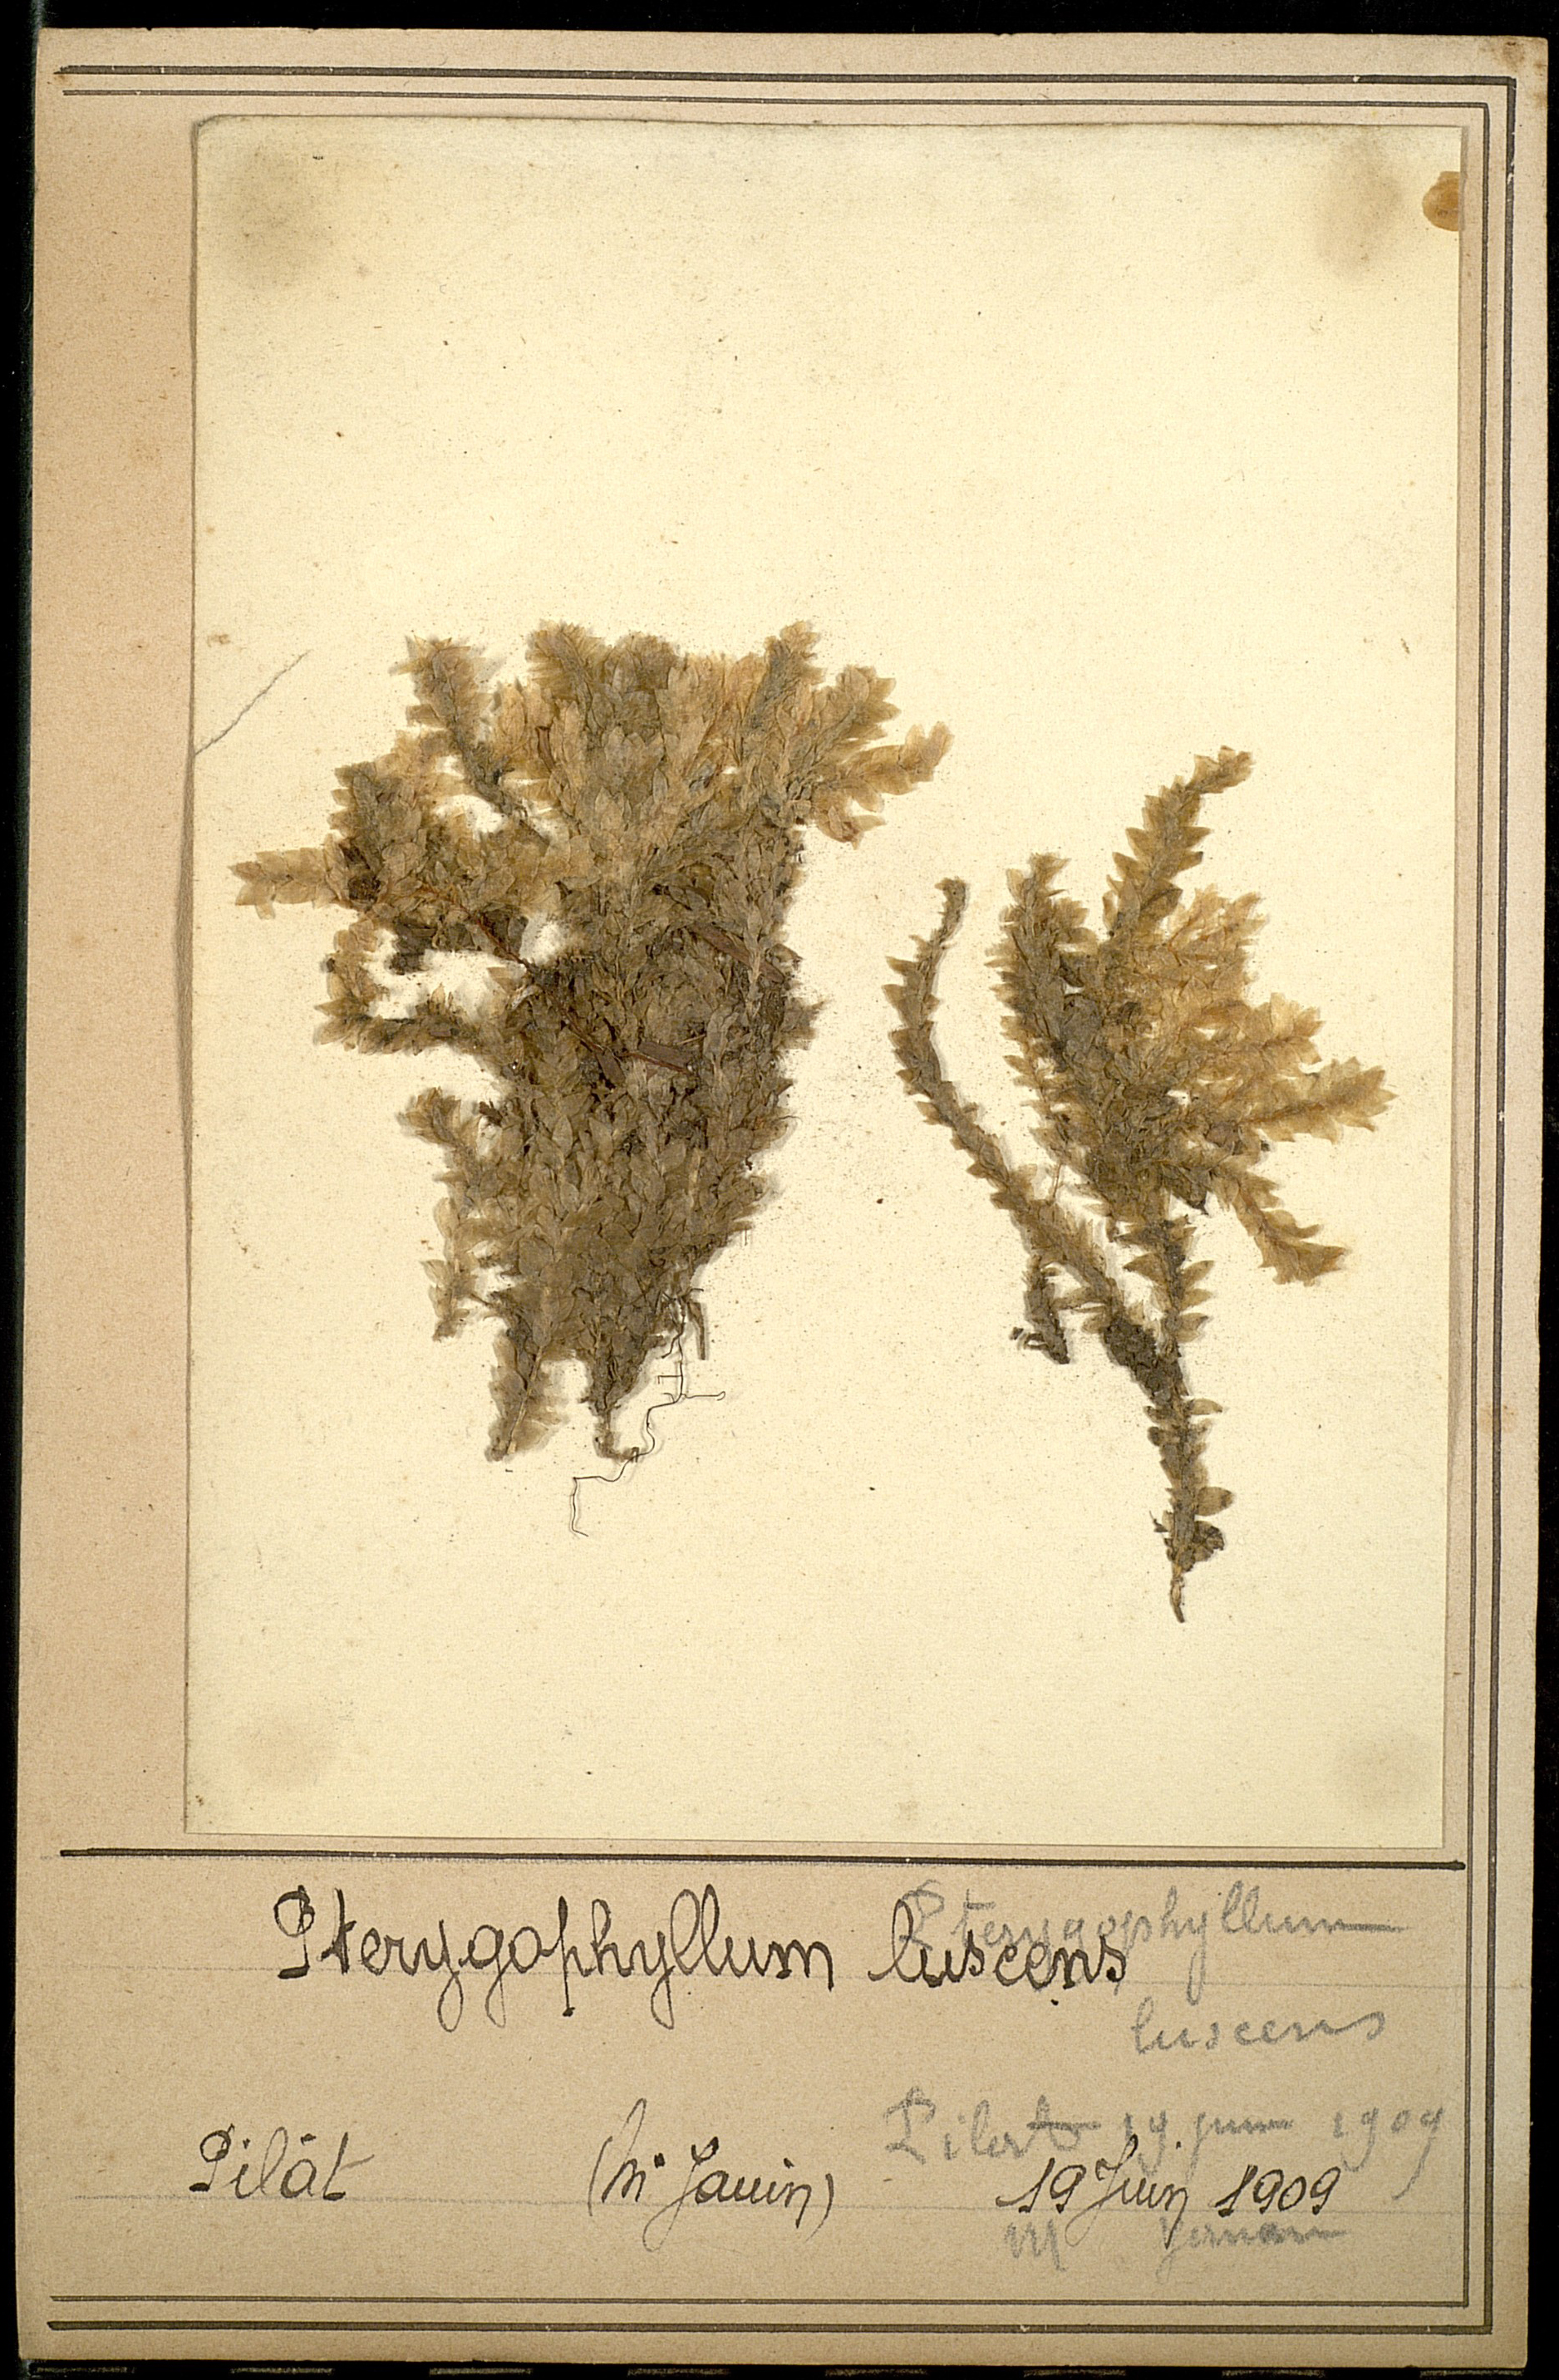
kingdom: Plantae
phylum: Bryophyta
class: Bryopsida
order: Hookeriales
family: Hookeriaceae
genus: Hookeria
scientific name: Hookeria lucens
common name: Shining hookeria
